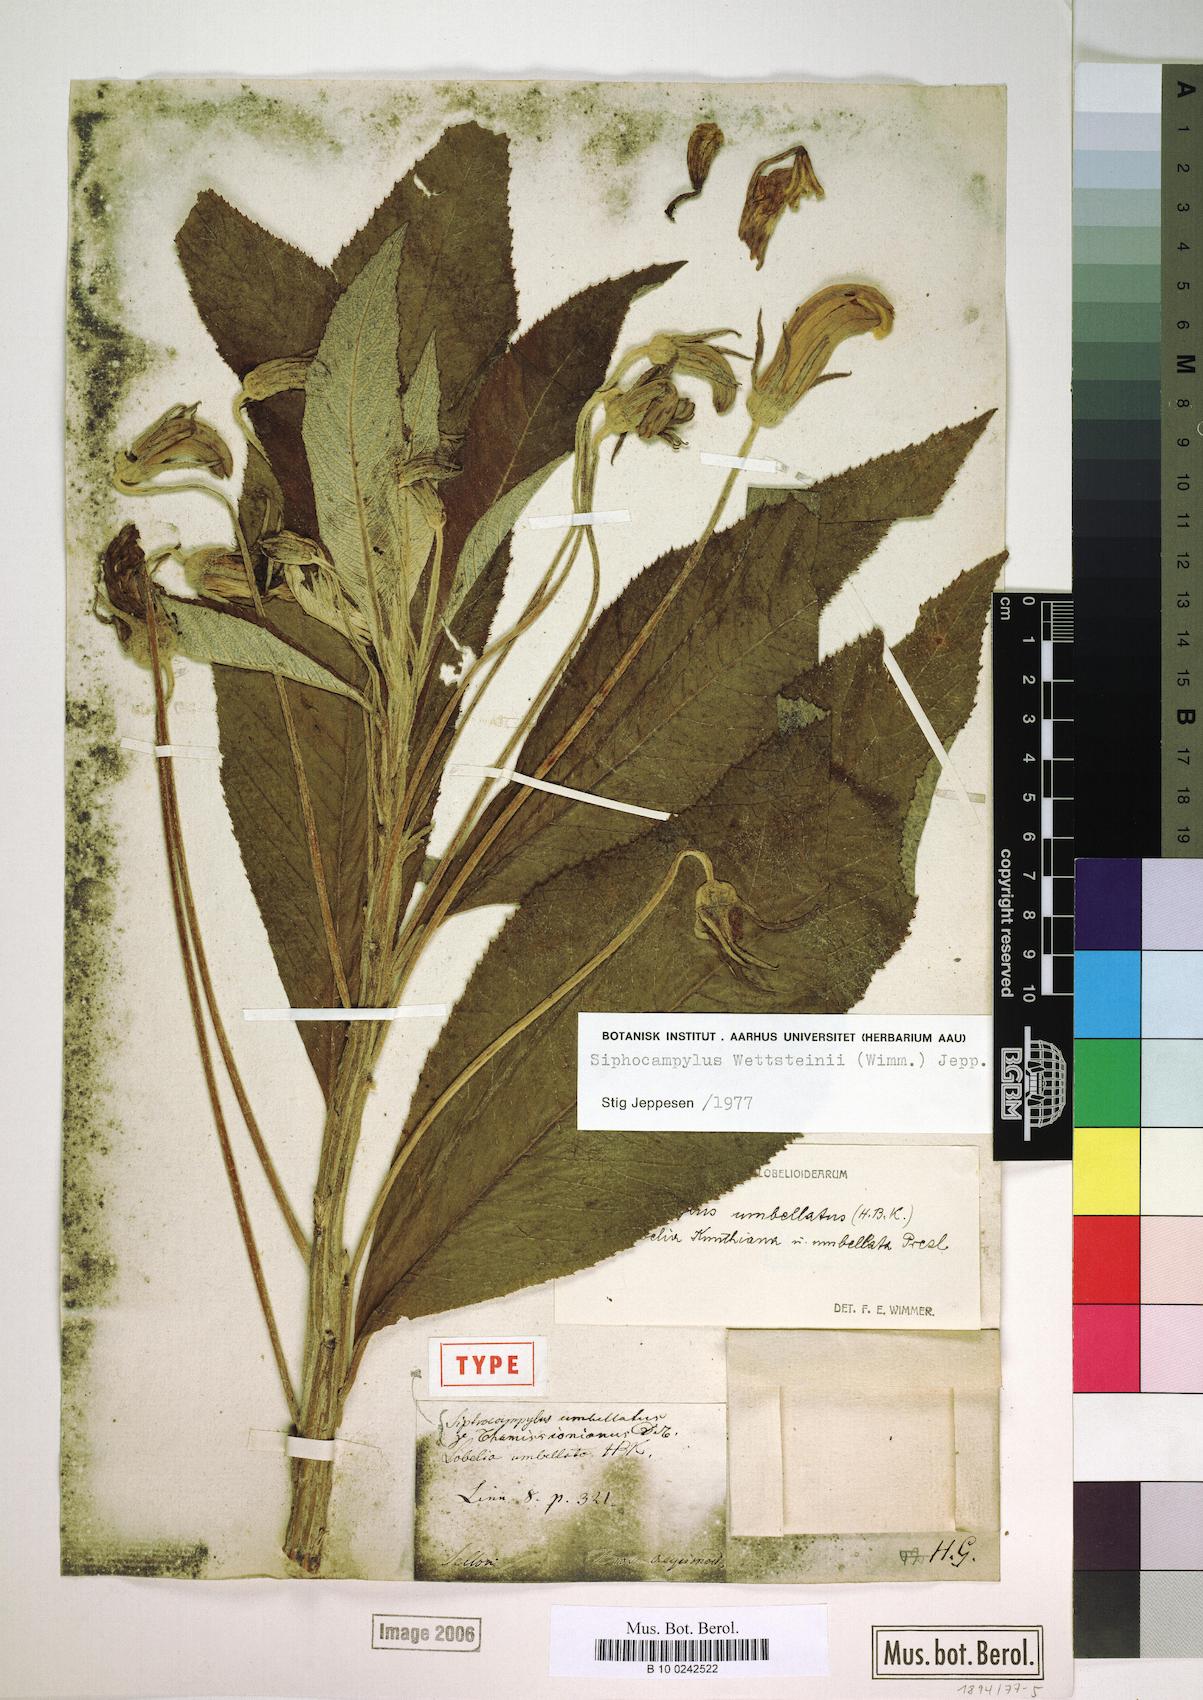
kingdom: Plantae
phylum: Tracheophyta
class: Magnoliopsida
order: Asterales
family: Campanulaceae
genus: Siphocampylus
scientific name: Siphocampylus
